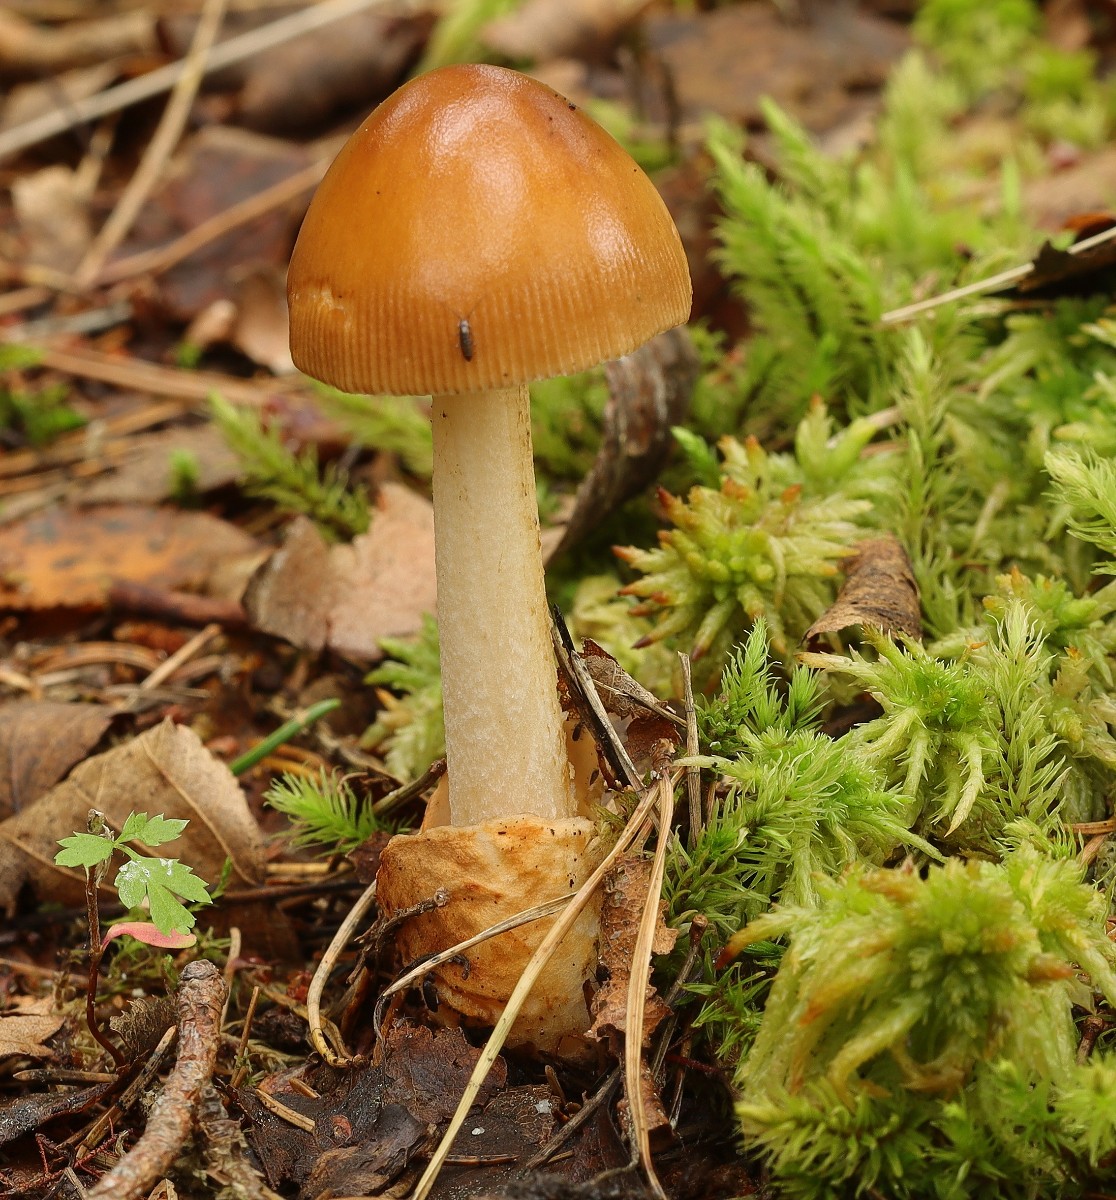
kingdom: Fungi
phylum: Basidiomycota
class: Agaricomycetes
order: Agaricales
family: Amanitaceae
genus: Amanita
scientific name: Amanita fulva
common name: brun kam-fluesvamp
